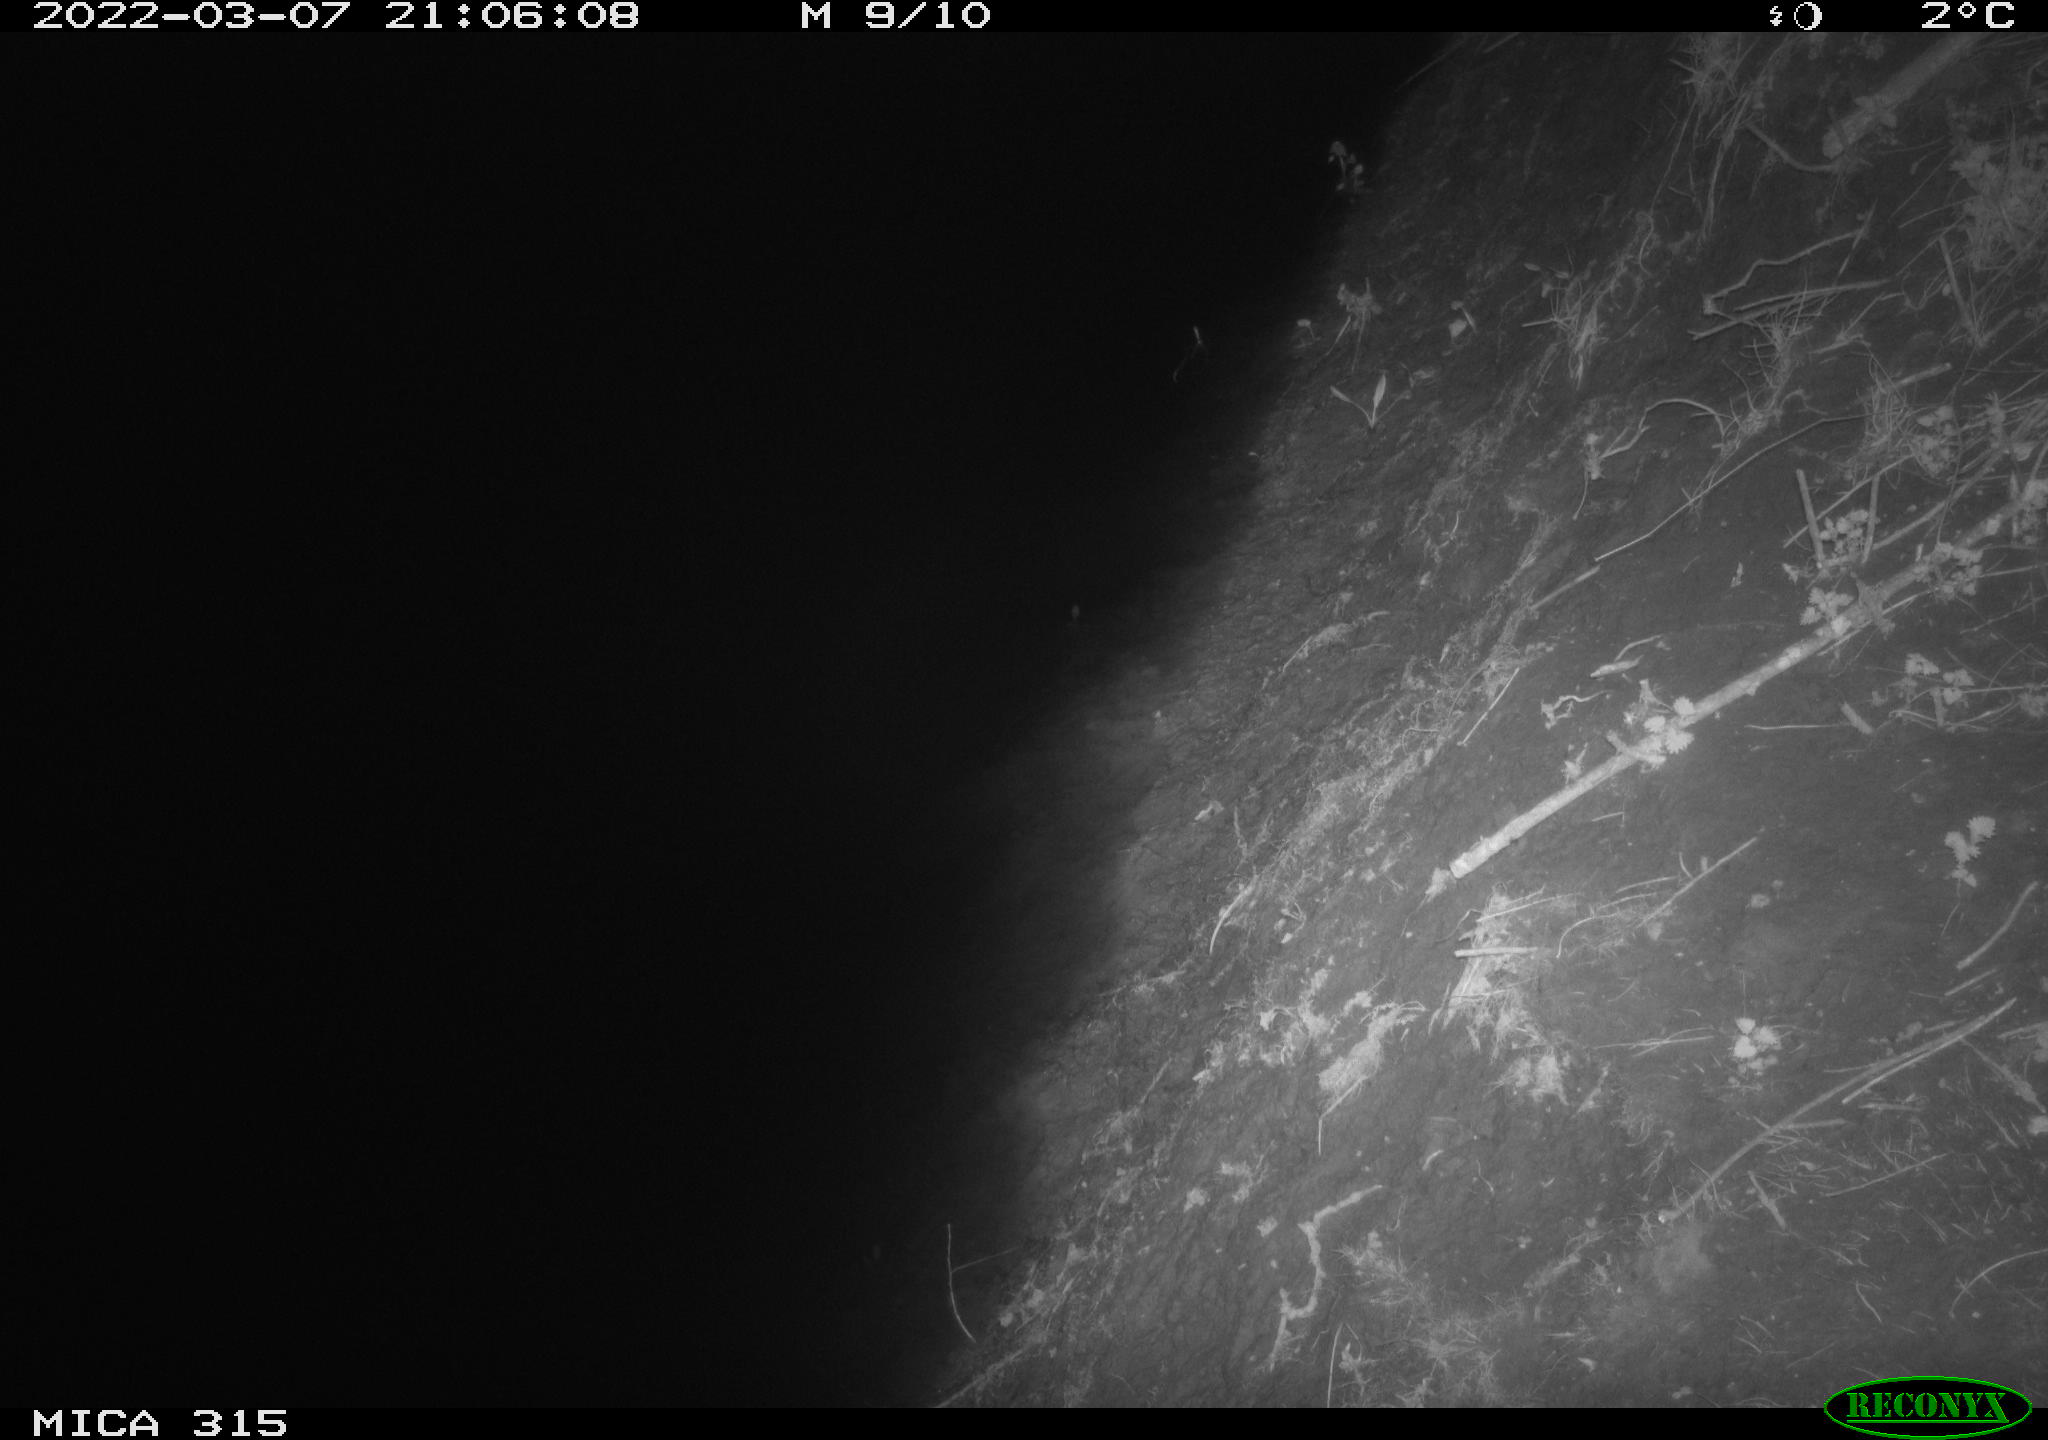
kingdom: Animalia
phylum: Chordata
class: Mammalia
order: Rodentia
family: Muridae
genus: Rattus
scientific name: Rattus norvegicus
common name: Brown rat
